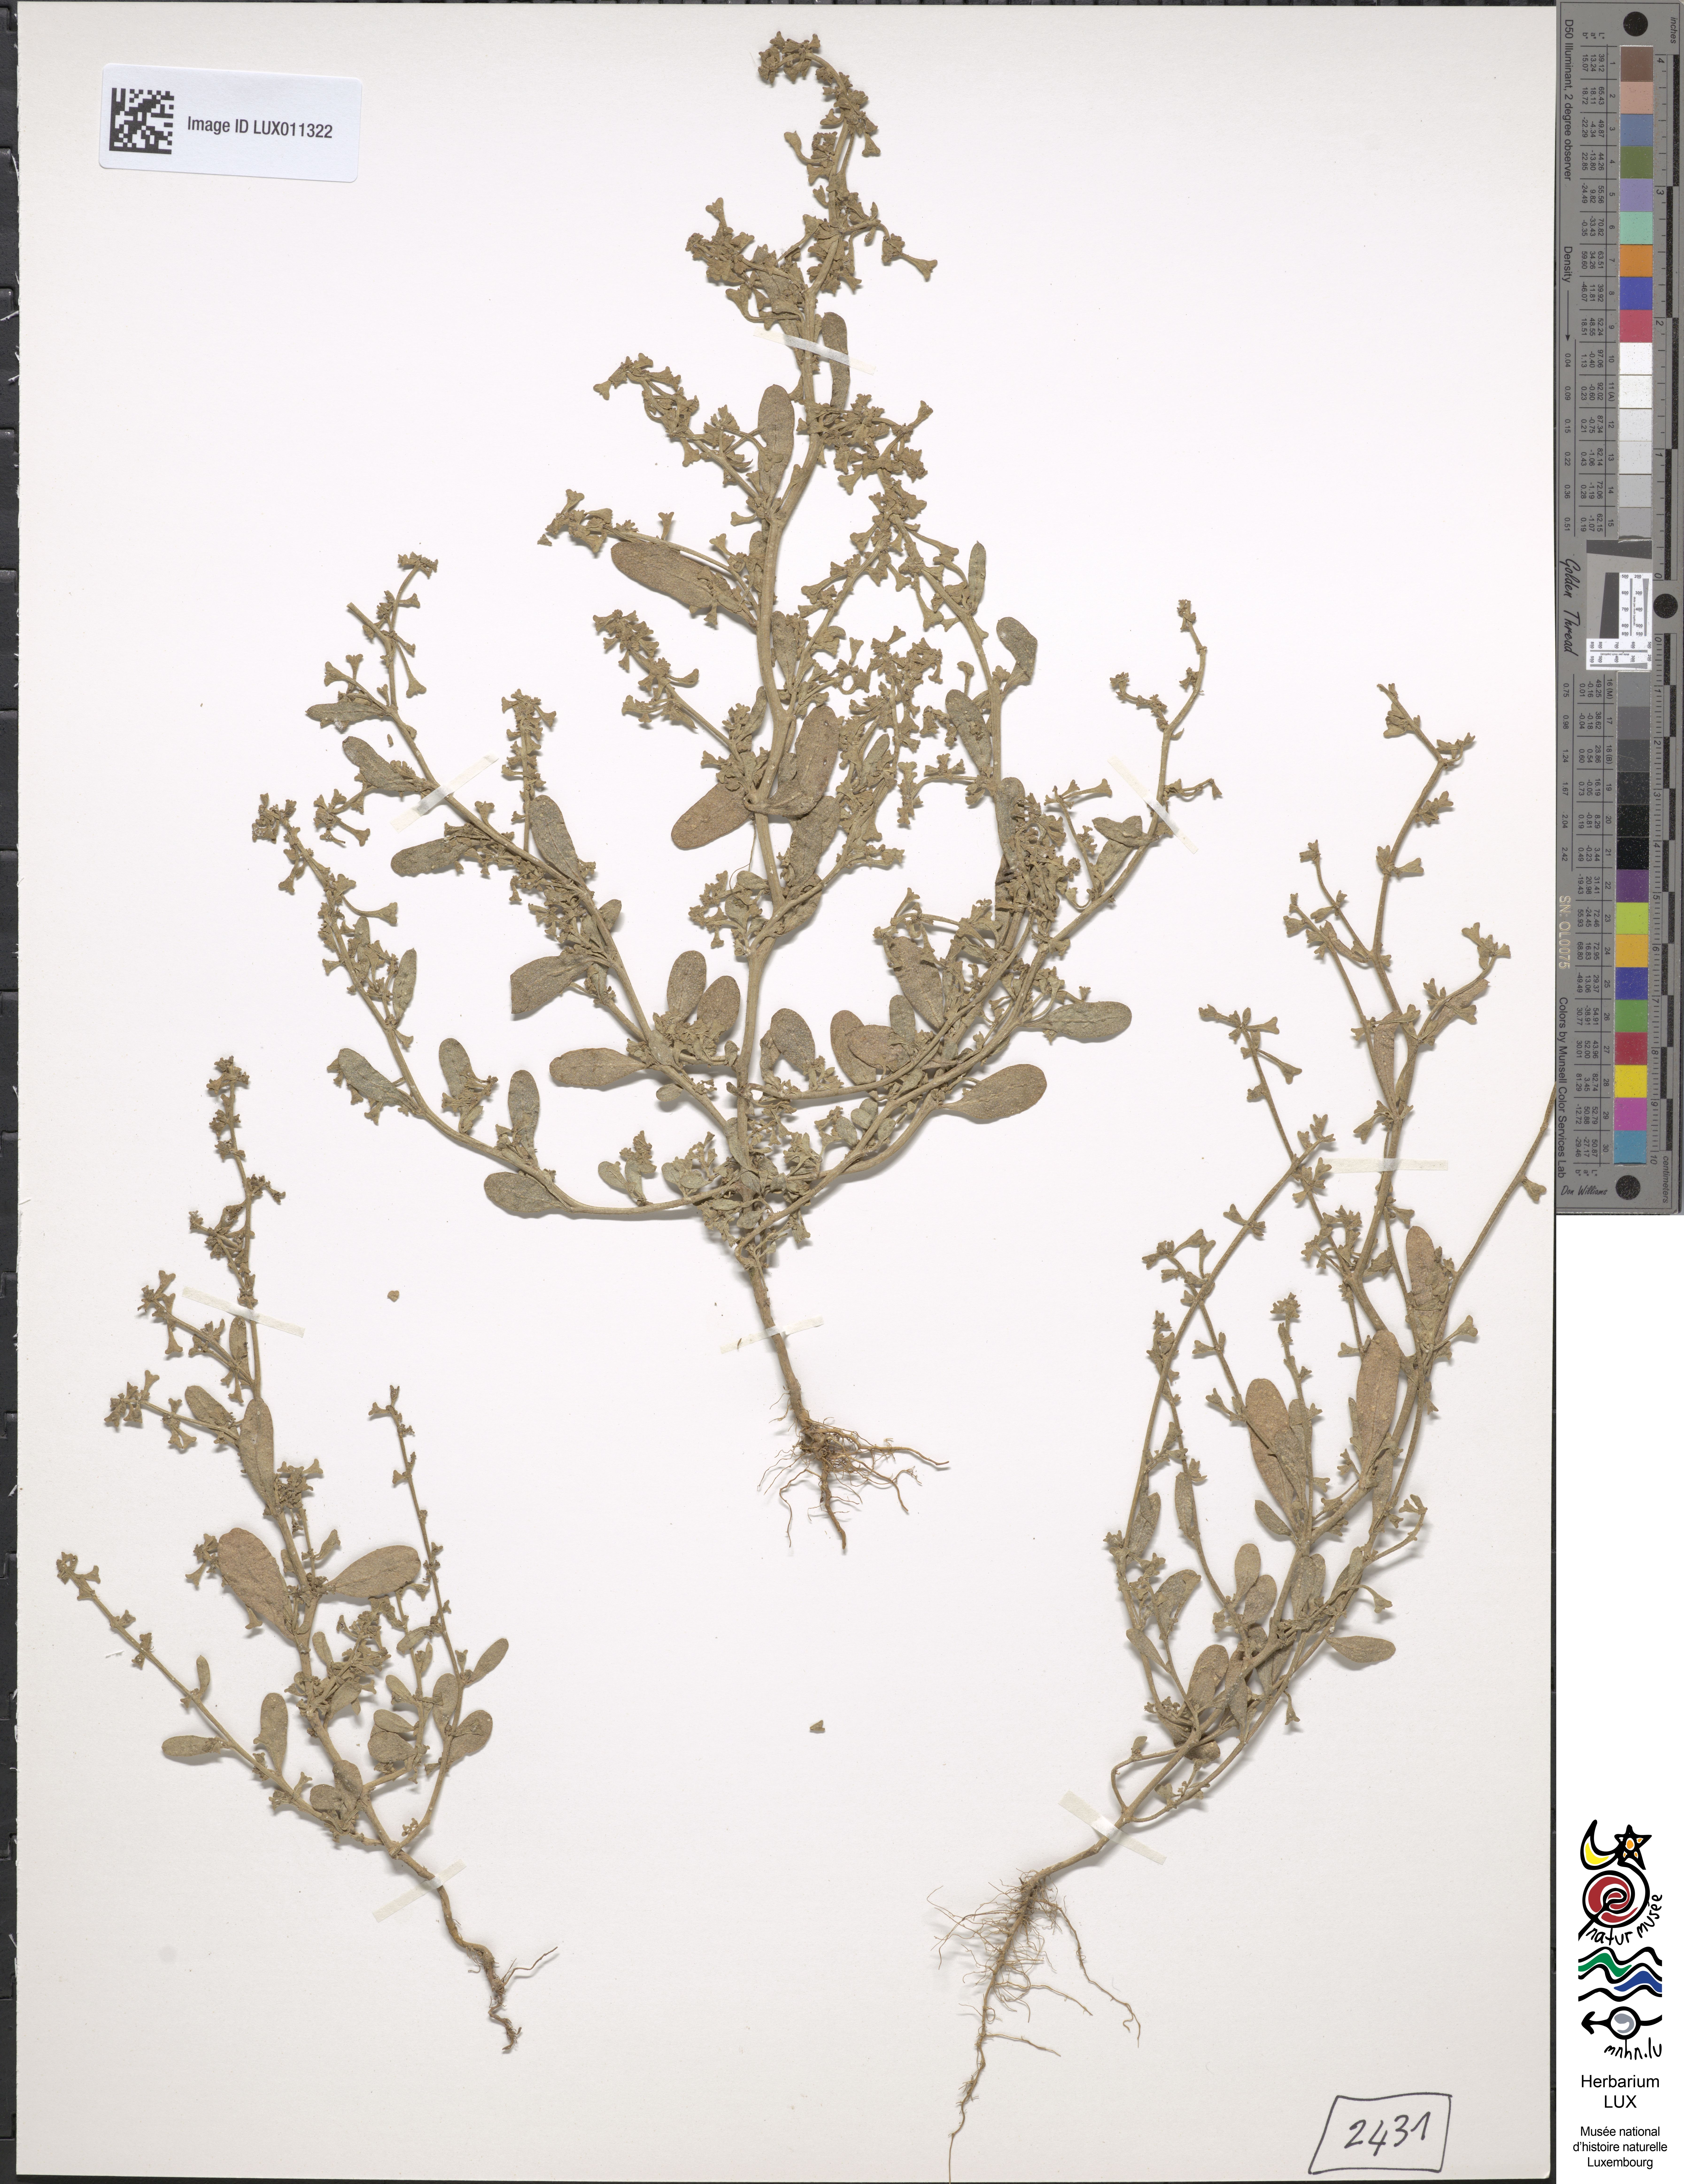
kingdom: Plantae
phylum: Tracheophyta
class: Magnoliopsida
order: Caryophyllales
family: Amaranthaceae
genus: Halimione
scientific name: Halimione pedunculata
